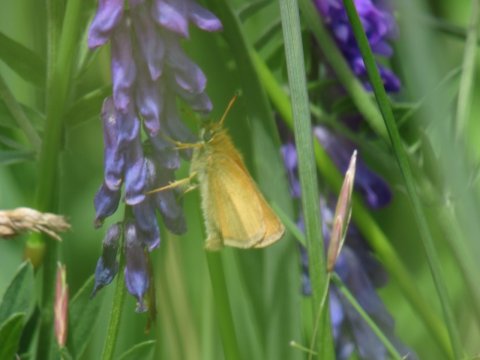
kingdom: Animalia
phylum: Arthropoda
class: Insecta
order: Lepidoptera
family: Hesperiidae
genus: Thymelicus
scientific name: Thymelicus lineola
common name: European Skipper
